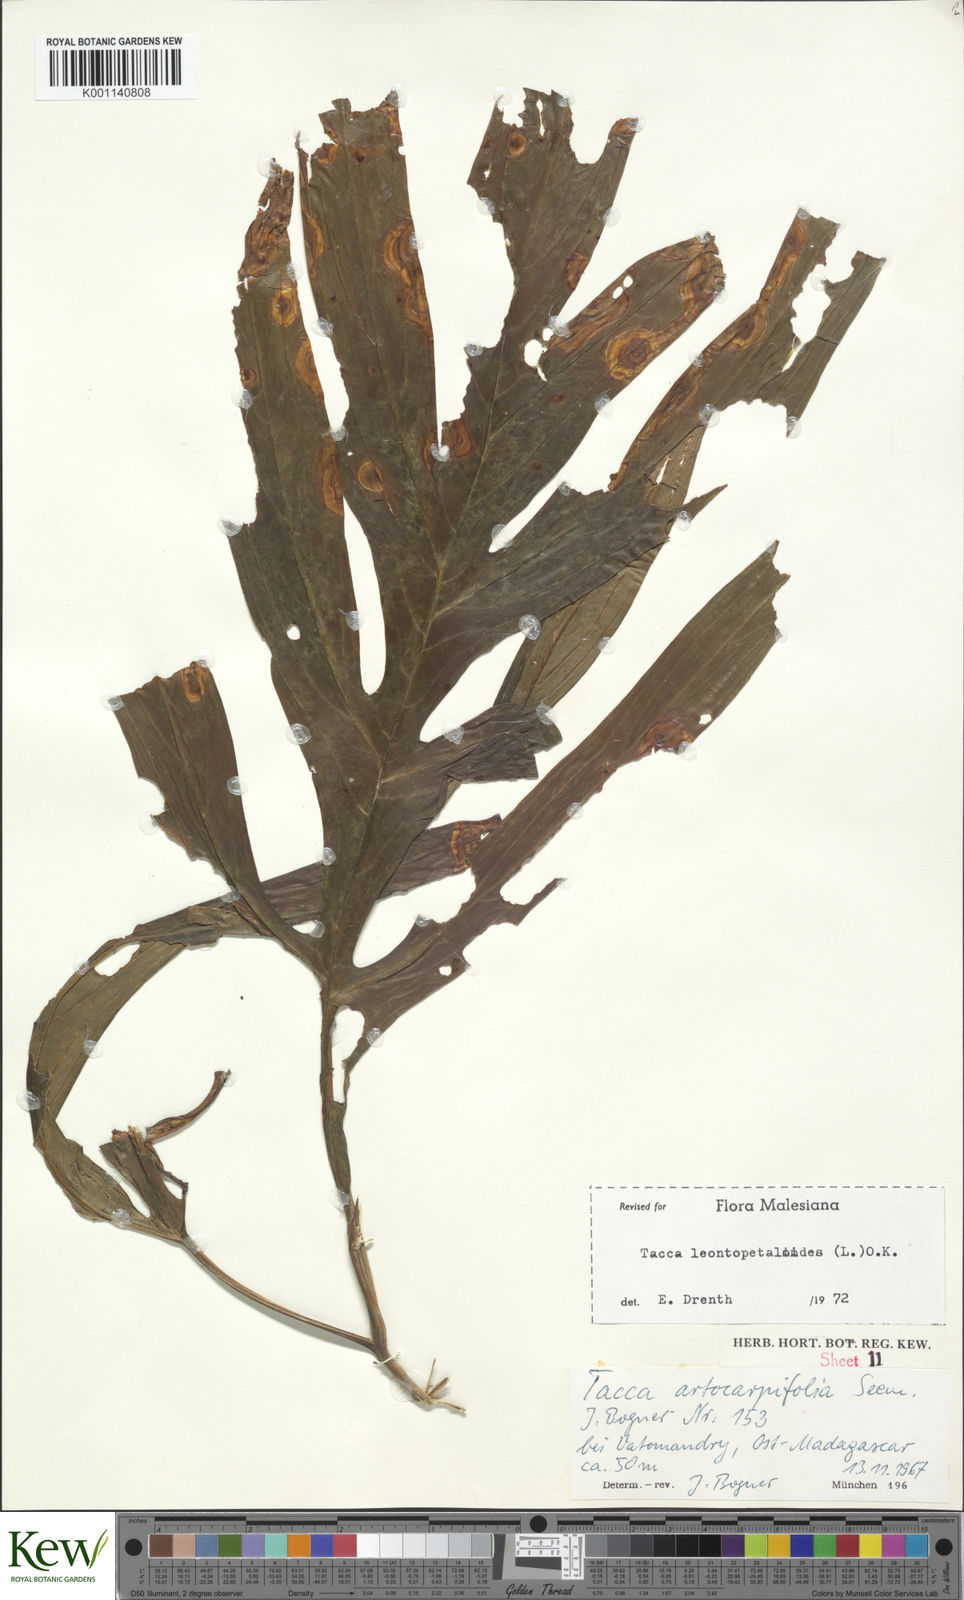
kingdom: Plantae
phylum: Tracheophyta
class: Liliopsida
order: Dioscoreales
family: Dioscoreaceae
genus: Tacca
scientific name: Tacca leontopetaloides
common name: Arrowroot
